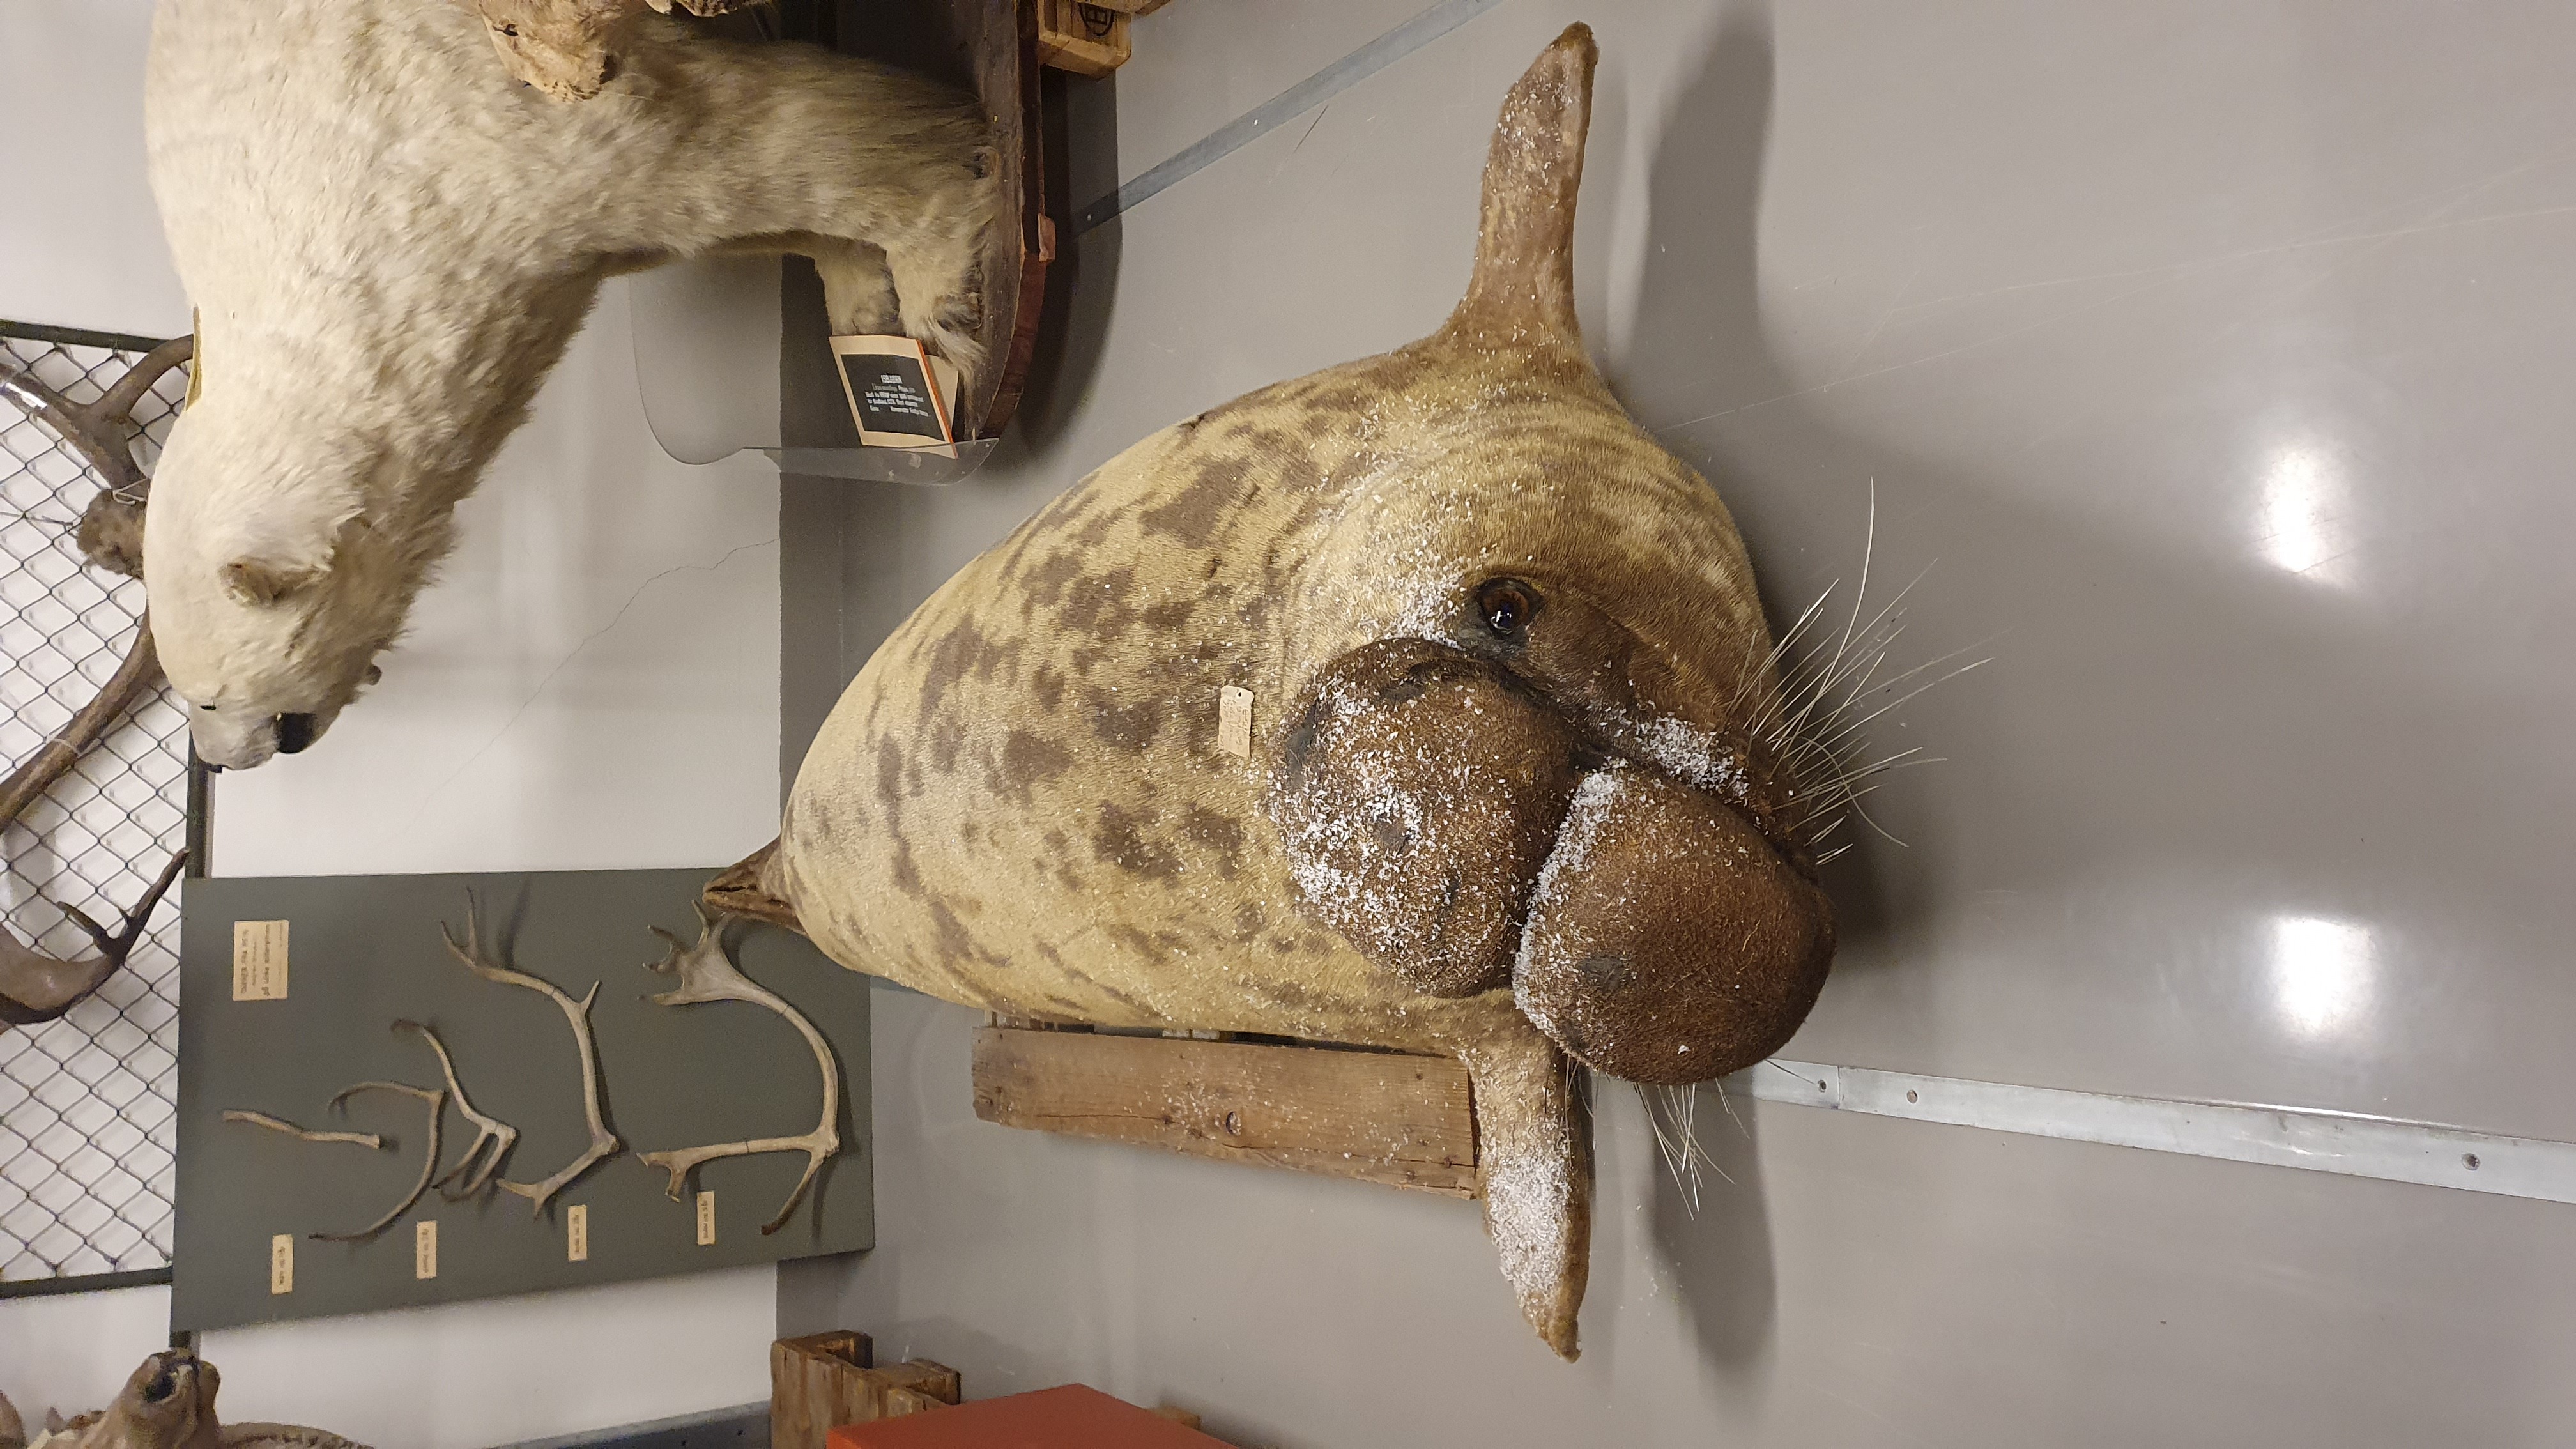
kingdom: Animalia
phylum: Chordata
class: Mammalia
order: Carnivora
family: Phocidae
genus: Cystophora
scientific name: Cystophora cristata
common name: Hooded seal
